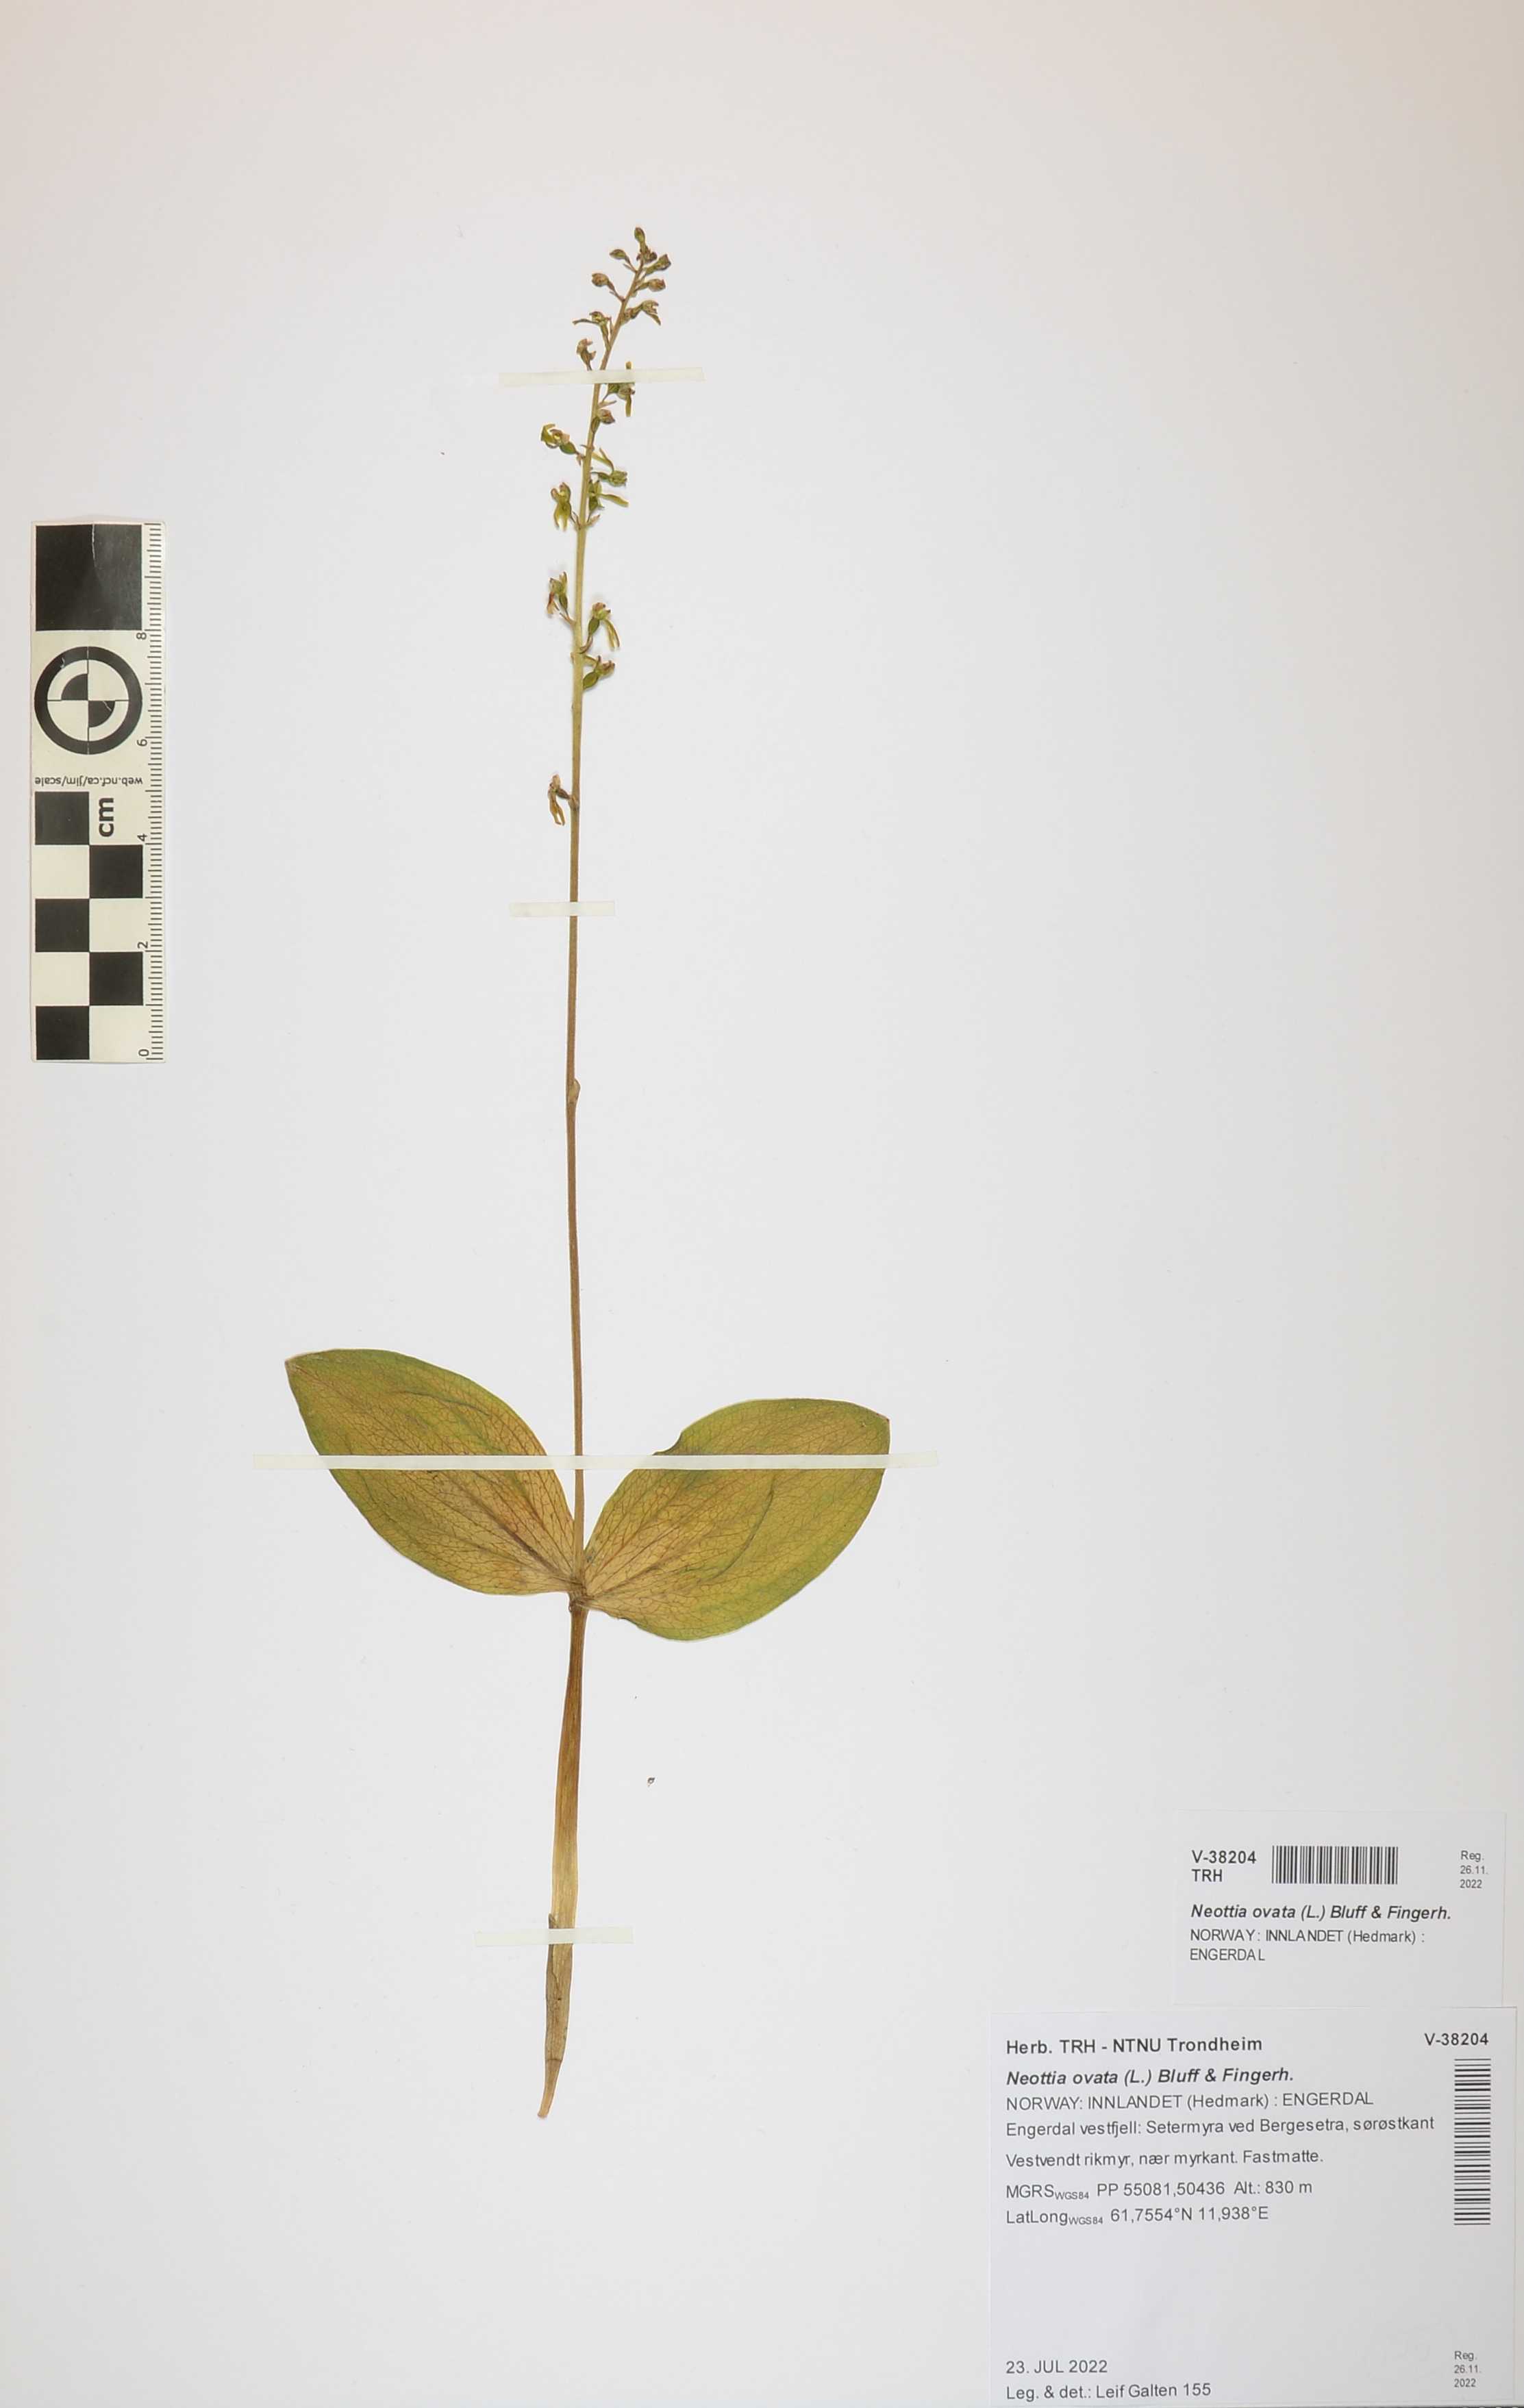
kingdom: Plantae
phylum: Tracheophyta
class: Liliopsida
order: Asparagales
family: Orchidaceae
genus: Neottia
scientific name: Neottia ovata
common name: Common twayblade
